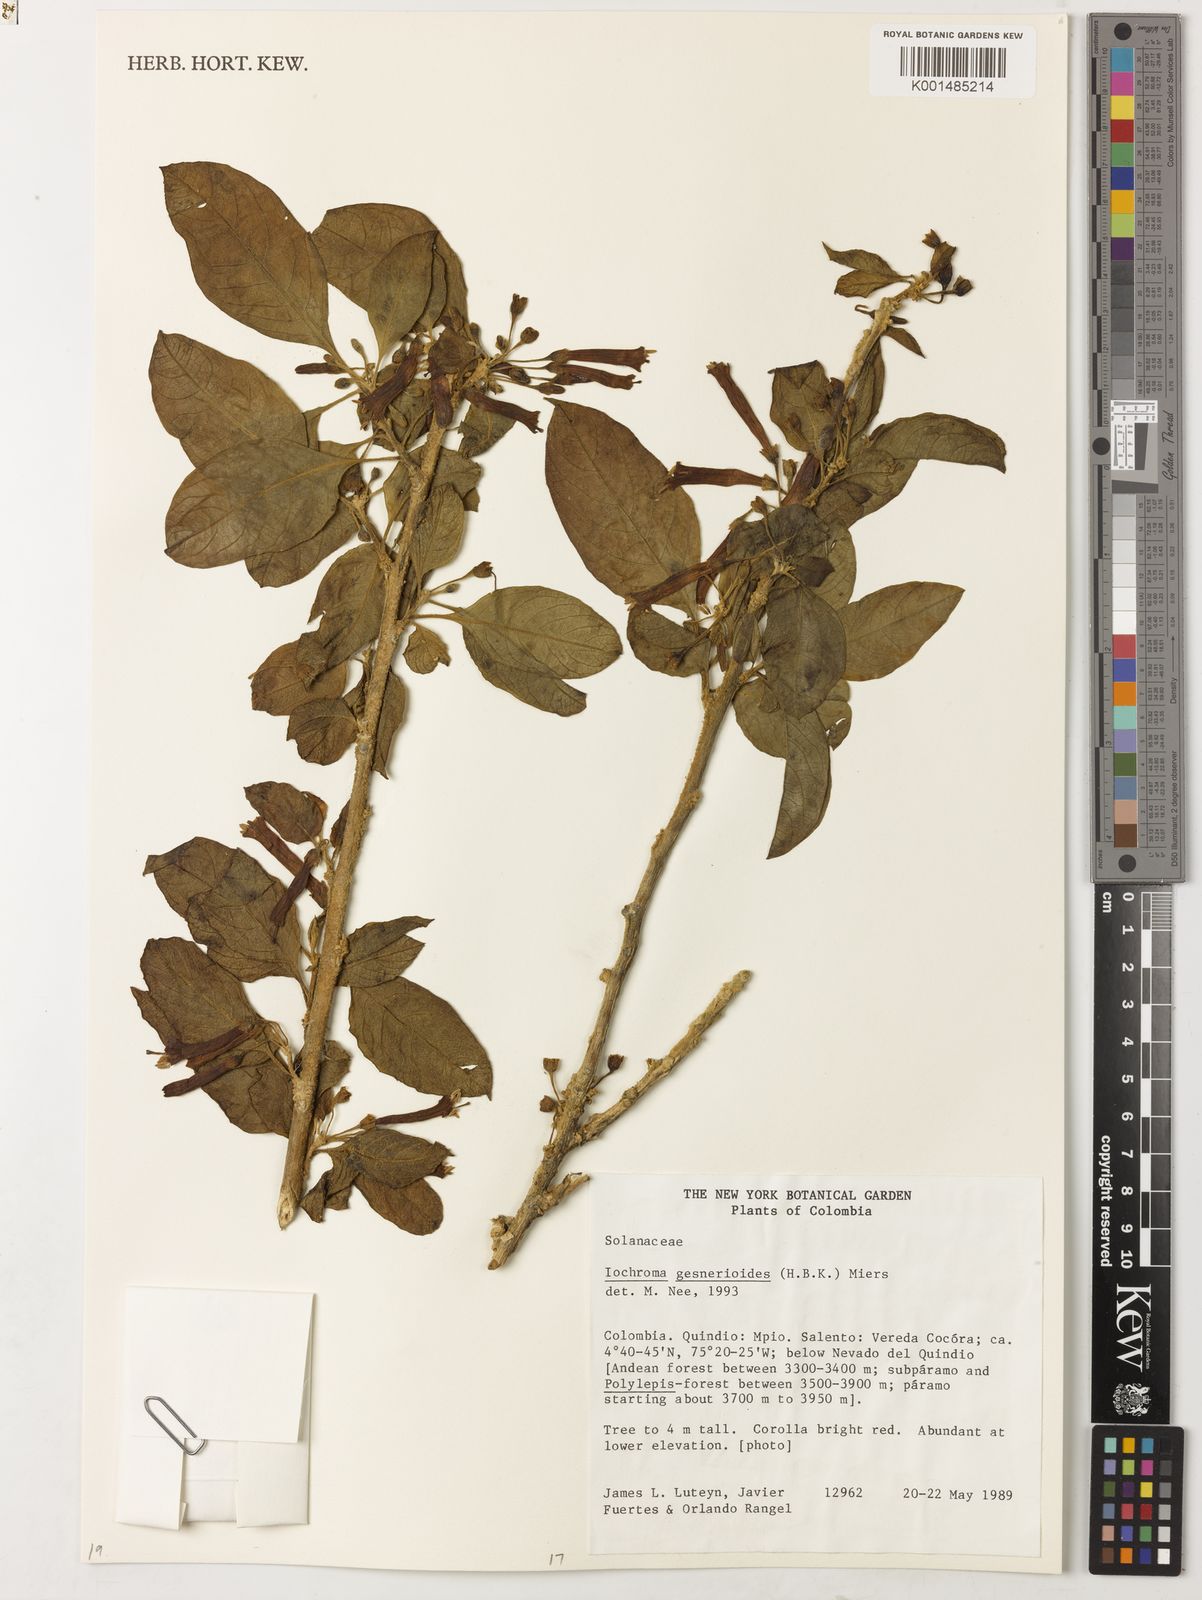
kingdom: Plantae
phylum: Tracheophyta
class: Magnoliopsida
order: Solanales
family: Solanaceae
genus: Iochroma
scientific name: Iochroma gesnerioides
